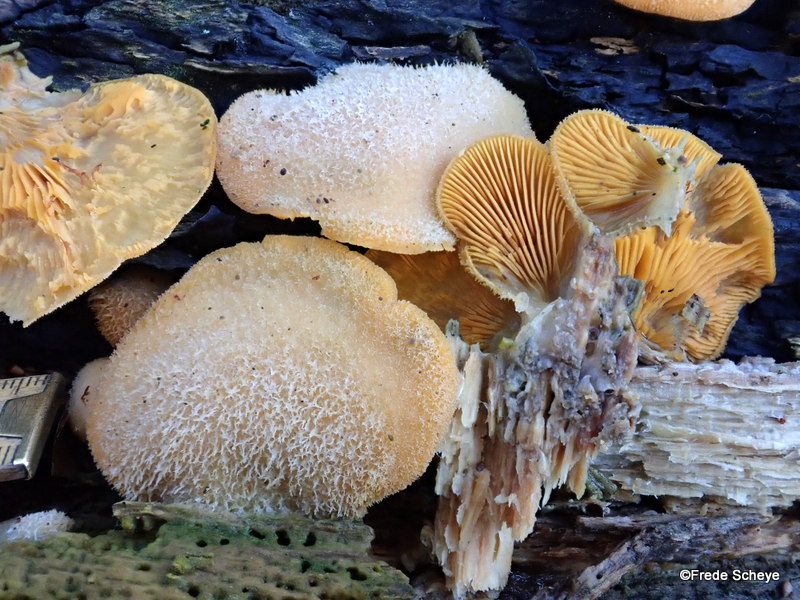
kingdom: Fungi
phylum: Basidiomycota
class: Agaricomycetes
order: Agaricales
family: Phyllotopsidaceae
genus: Phyllotopsis
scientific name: Phyllotopsis nidulans
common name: okkerblad
